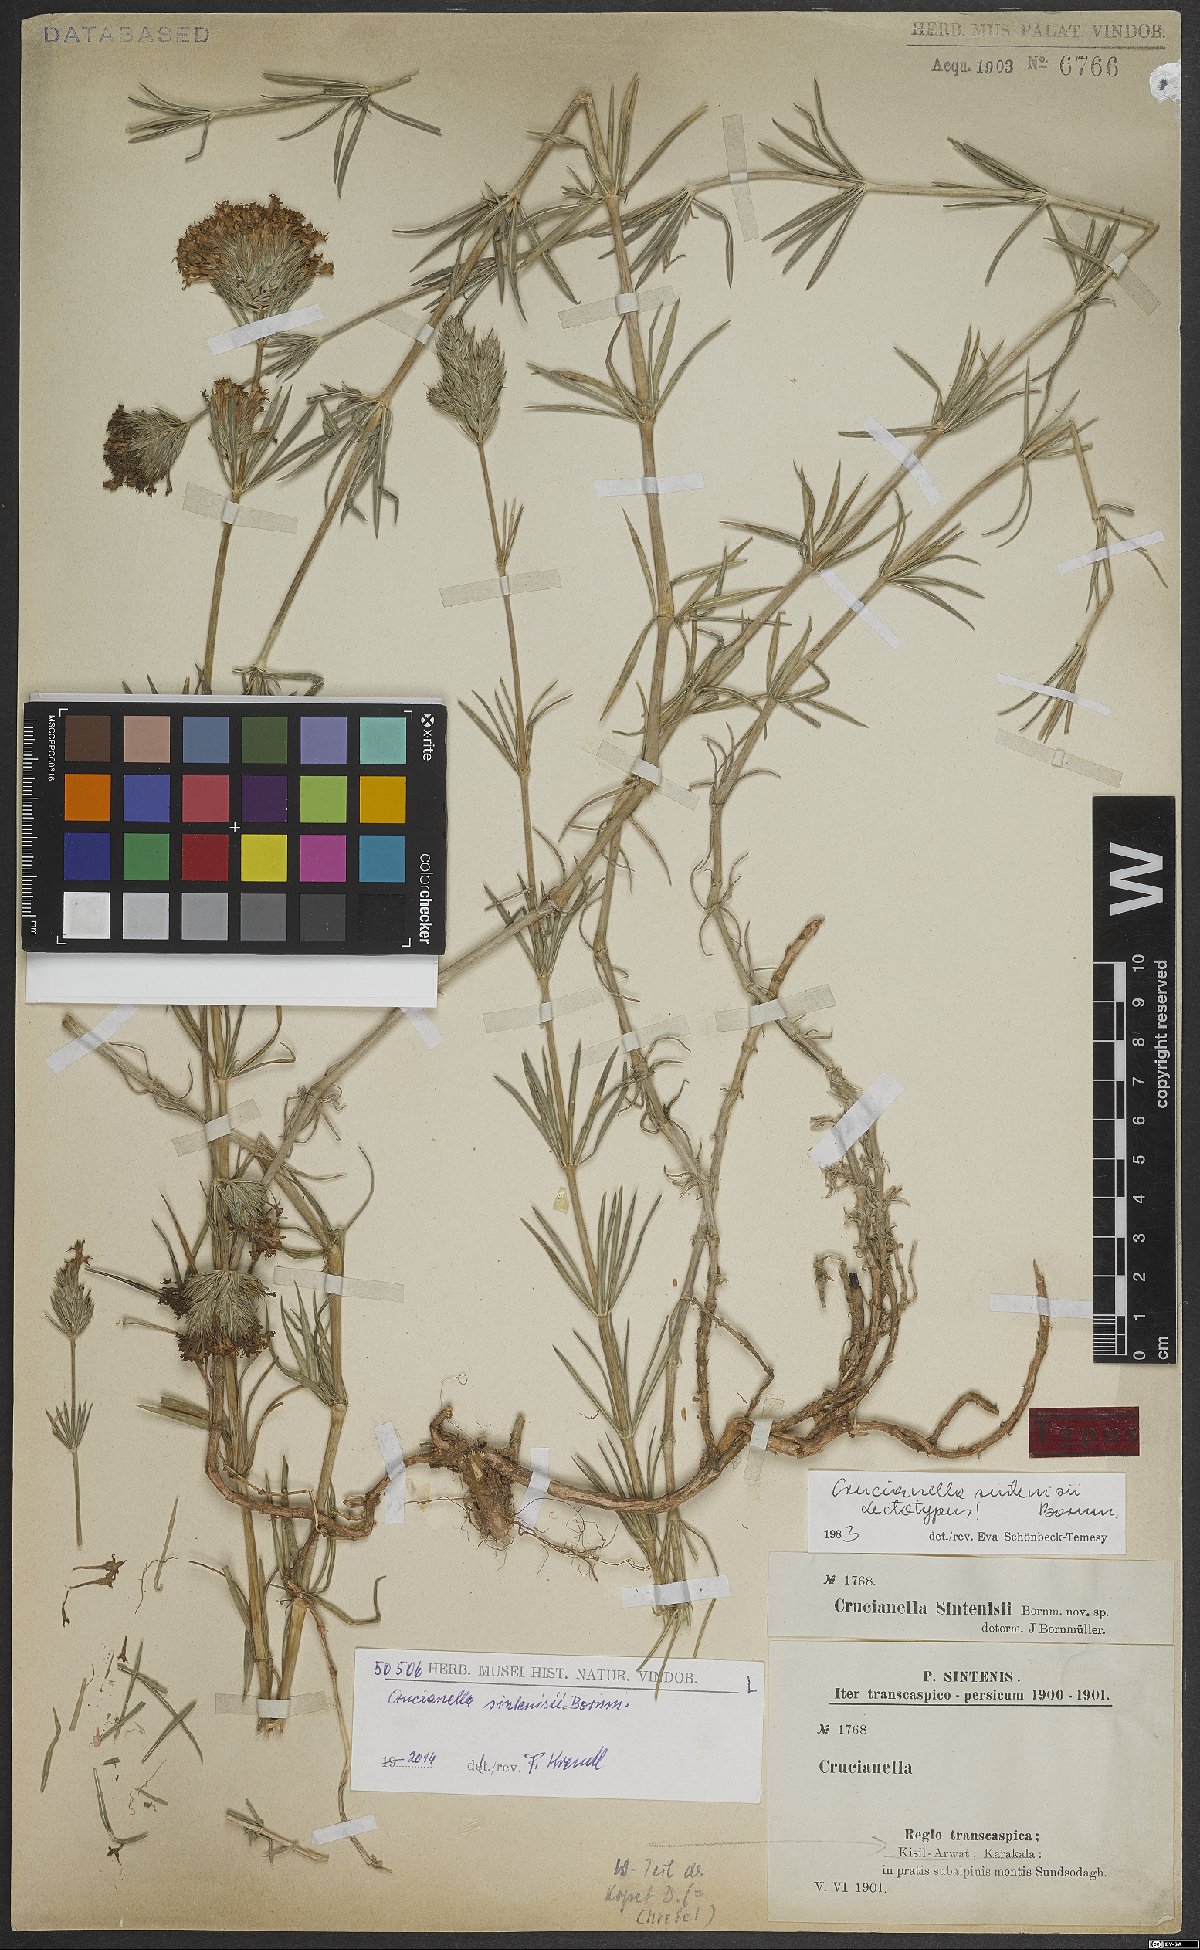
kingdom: Plantae
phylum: Tracheophyta
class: Magnoliopsida
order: Gentianales
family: Rubiaceae
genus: Crucianella
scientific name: Crucianella sintenisii
